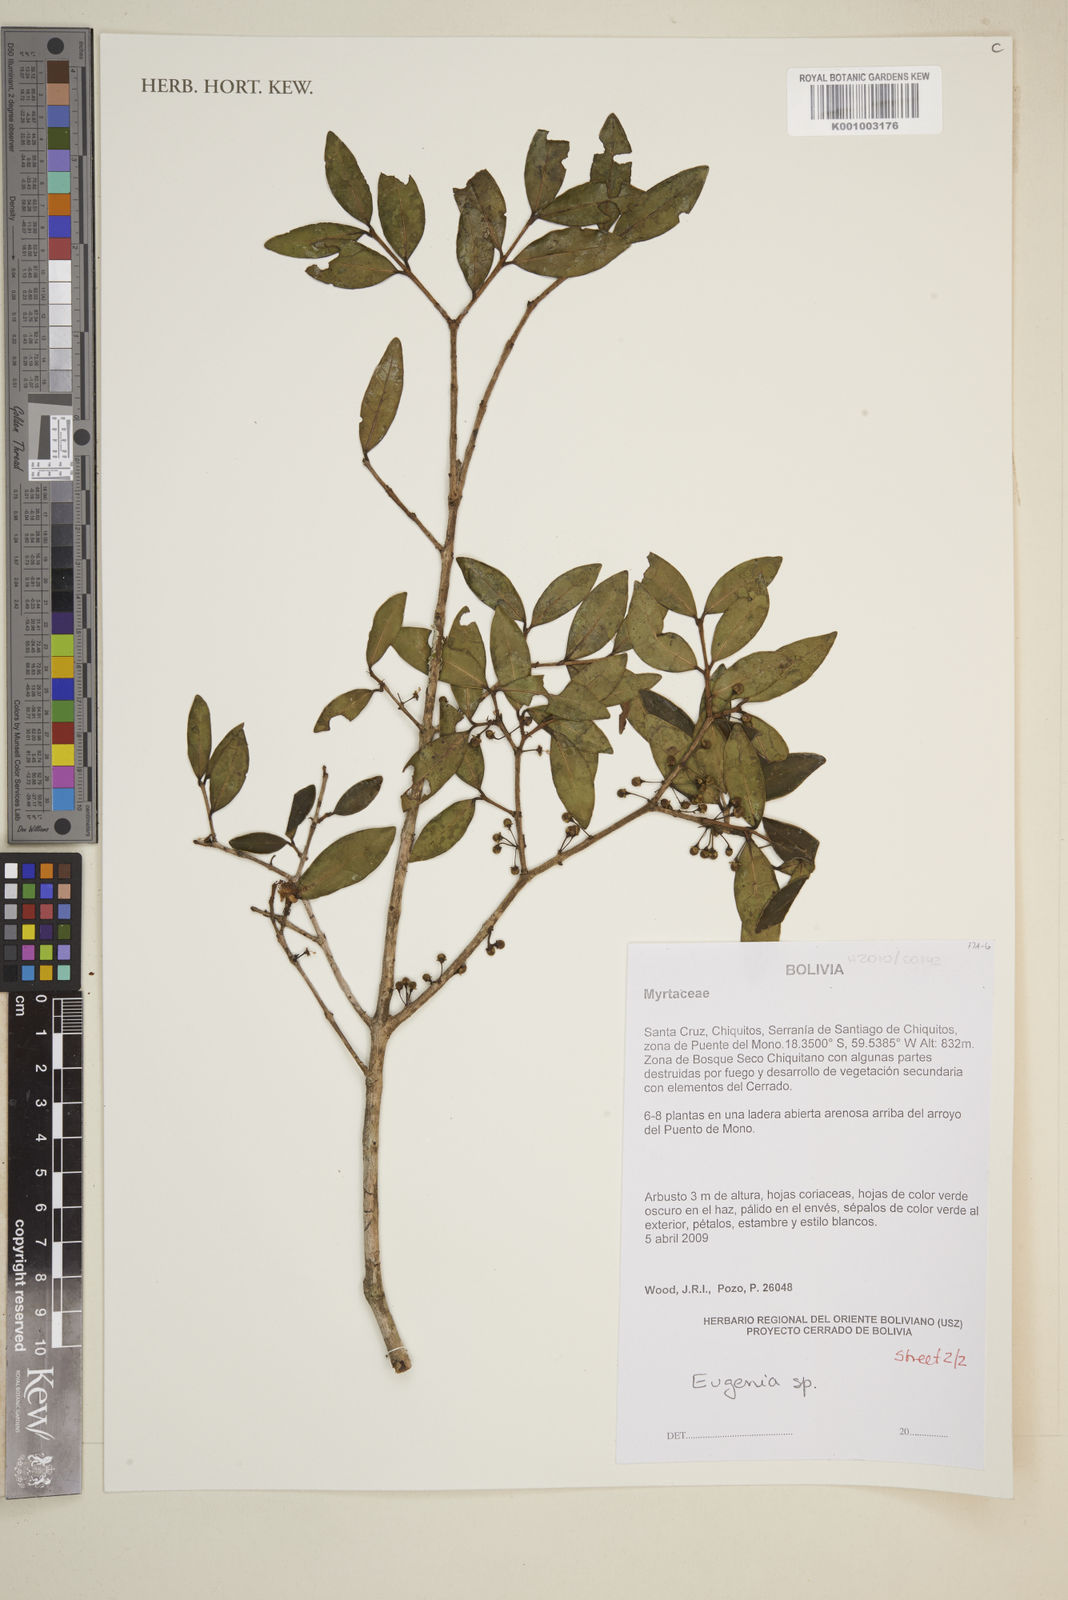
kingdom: Plantae
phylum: Tracheophyta
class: Magnoliopsida
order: Myrtales
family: Myrtaceae
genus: Eugenia
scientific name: Eugenia
